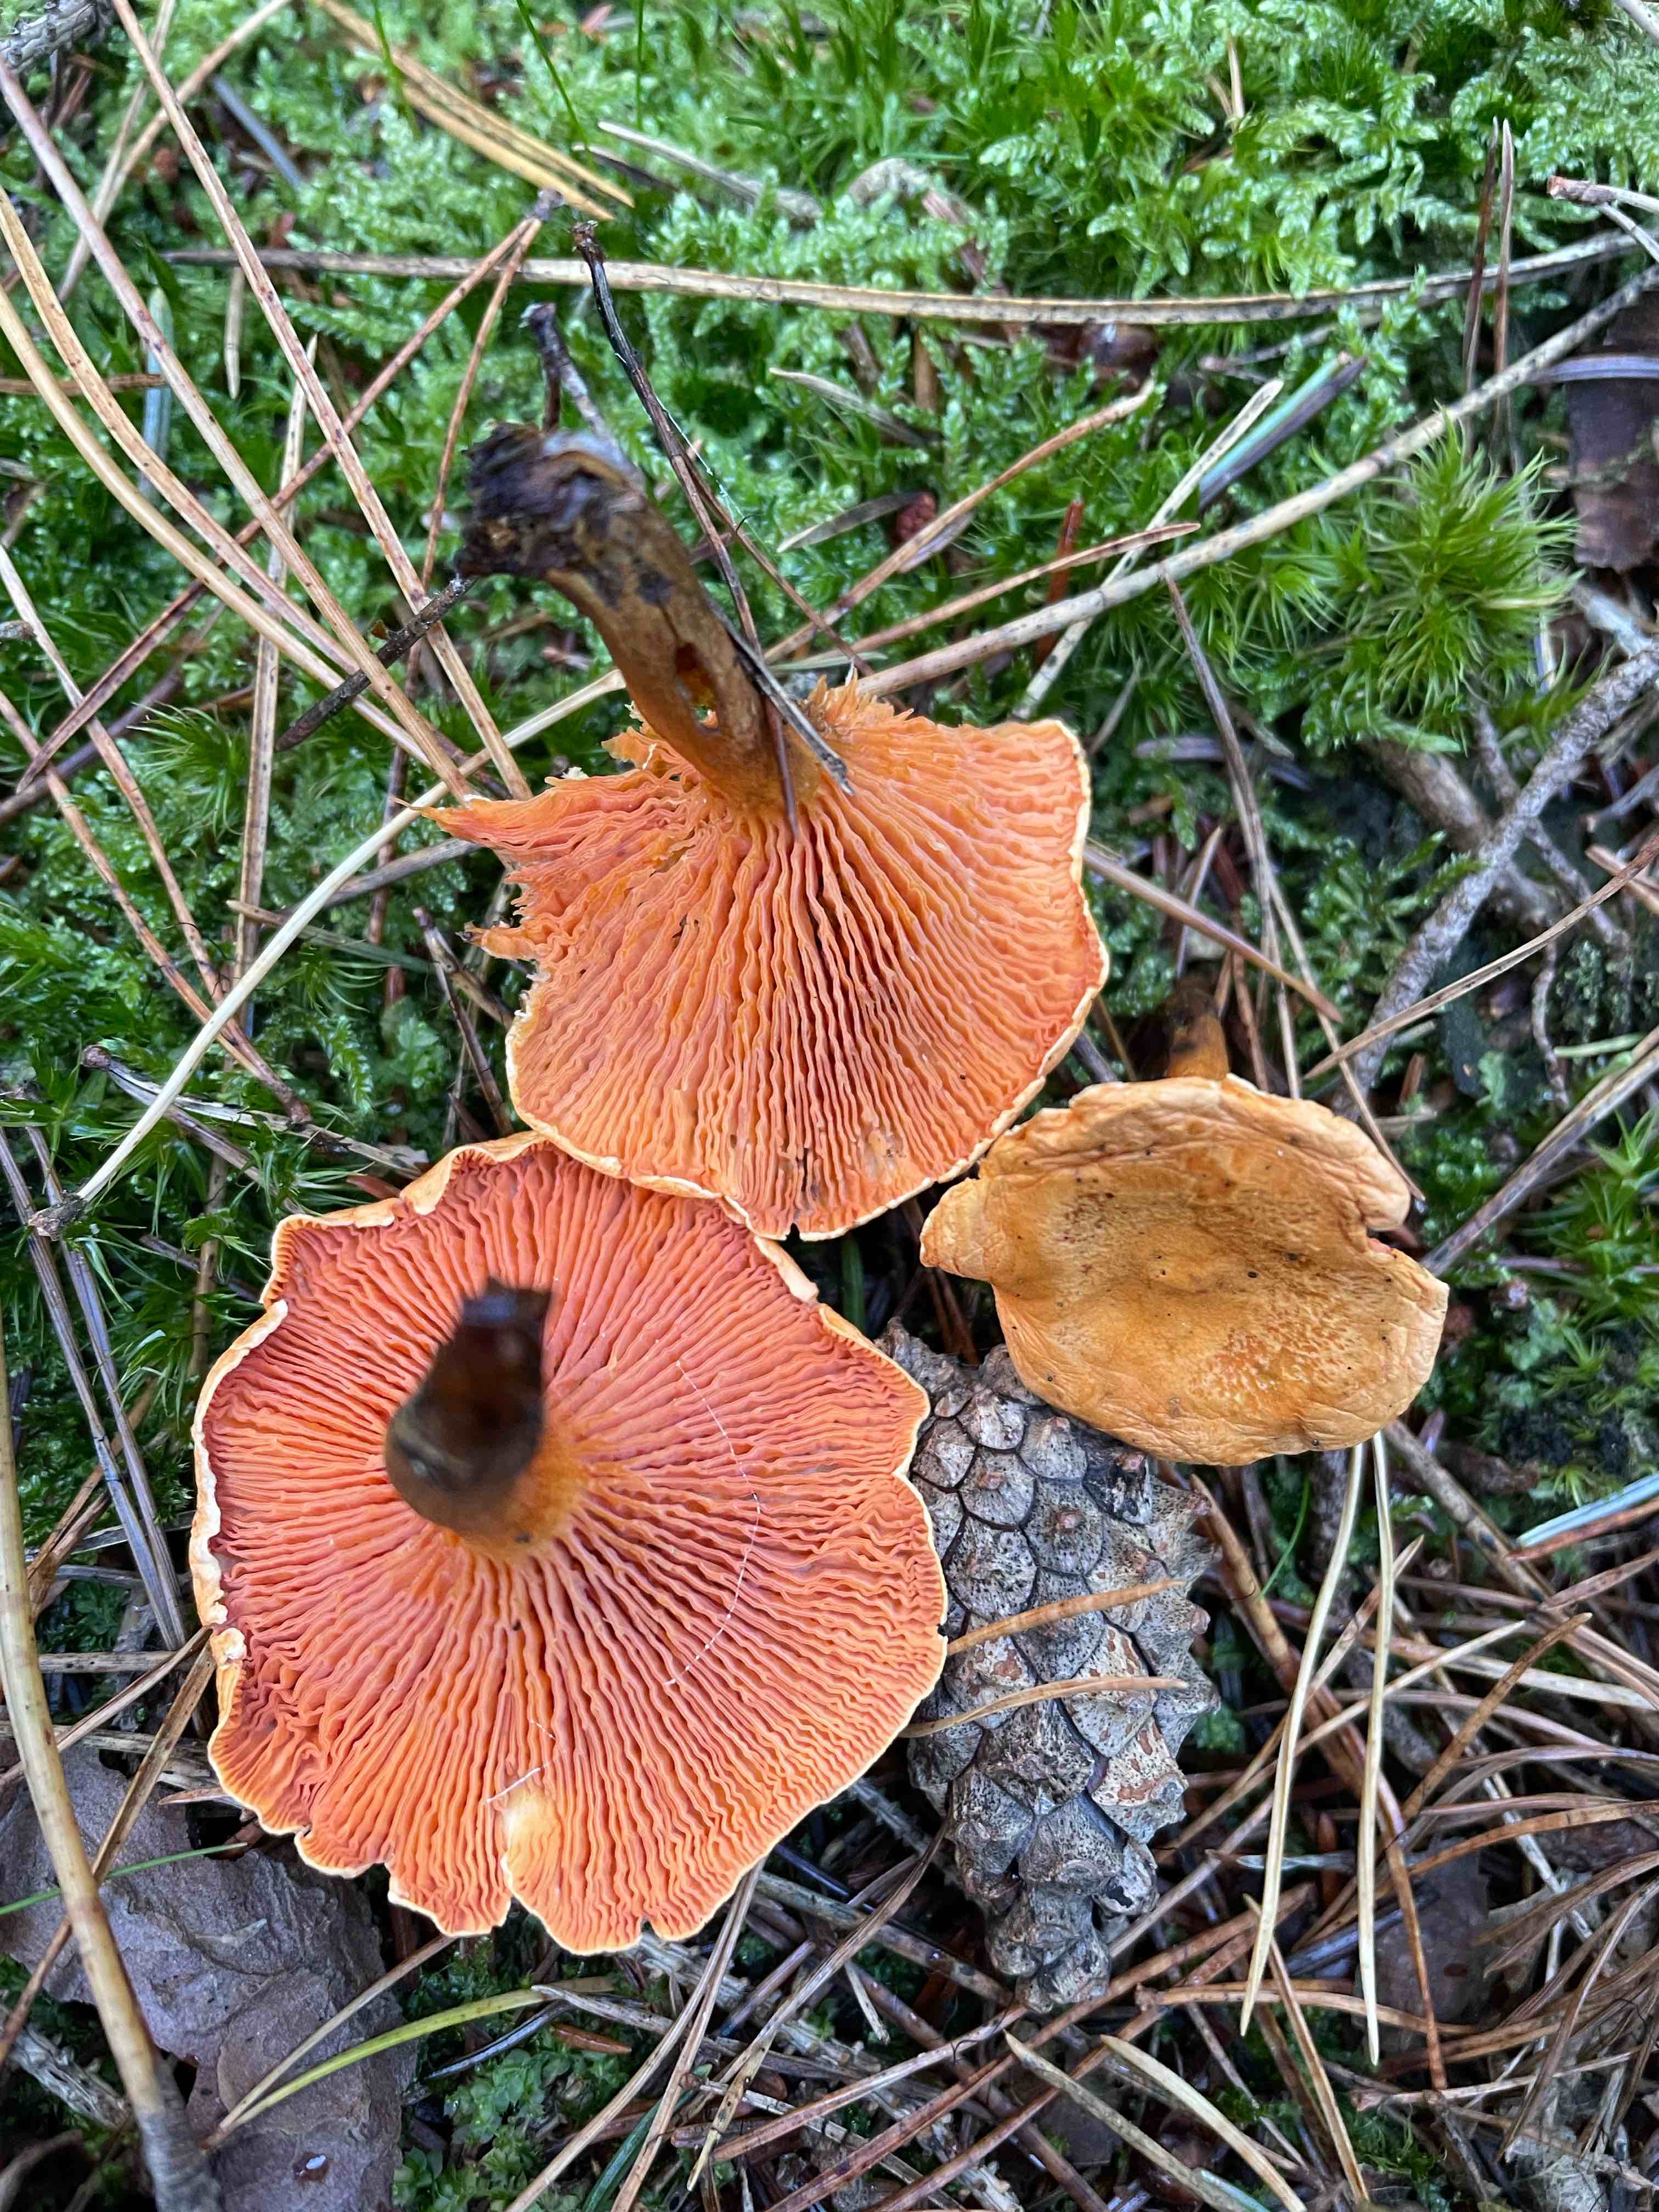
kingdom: Fungi
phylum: Basidiomycota
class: Agaricomycetes
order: Boletales
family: Hygrophoropsidaceae
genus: Hygrophoropsis
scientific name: Hygrophoropsis aurantiaca
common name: almindelig orangekantarel
